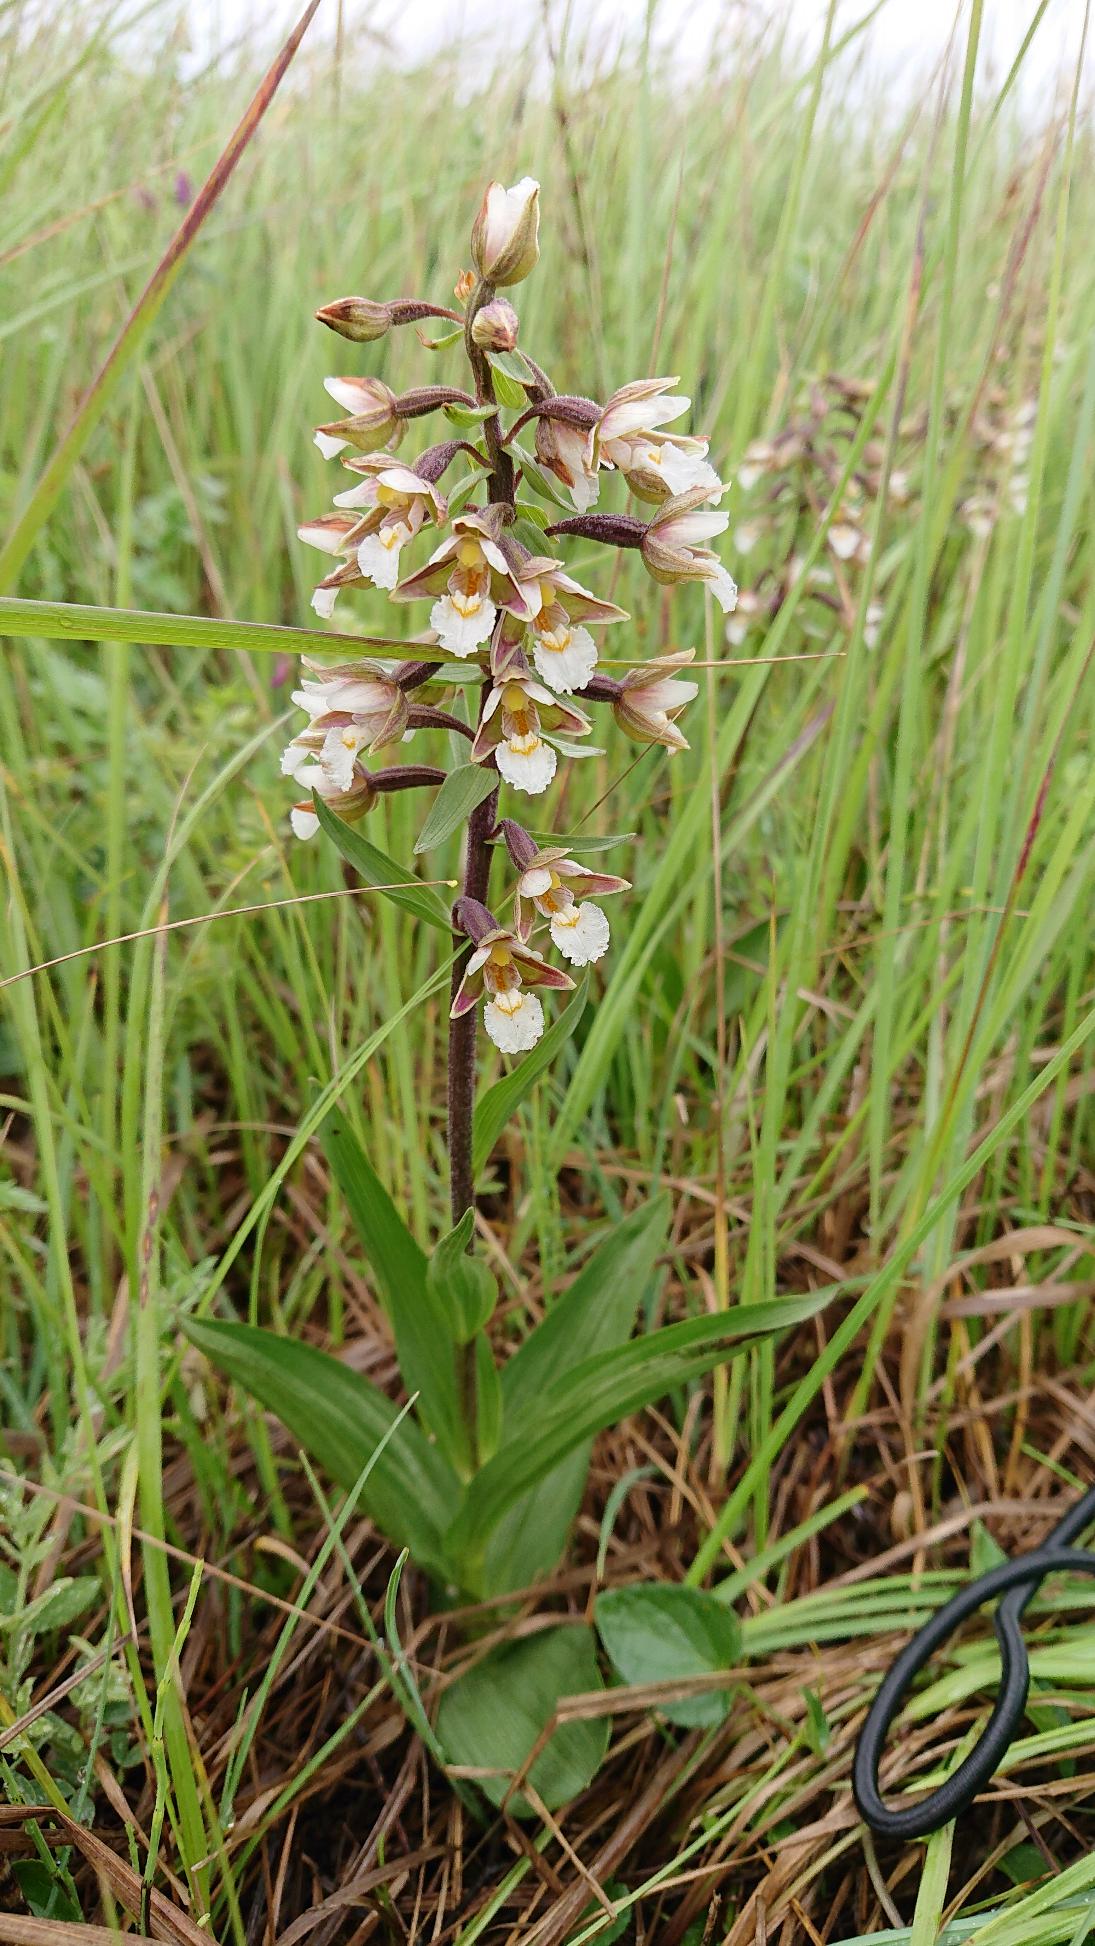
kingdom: Plantae
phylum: Tracheophyta
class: Liliopsida
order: Asparagales
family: Orchidaceae
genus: Epipactis
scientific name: Epipactis palustris
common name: Sump-hullæbe
